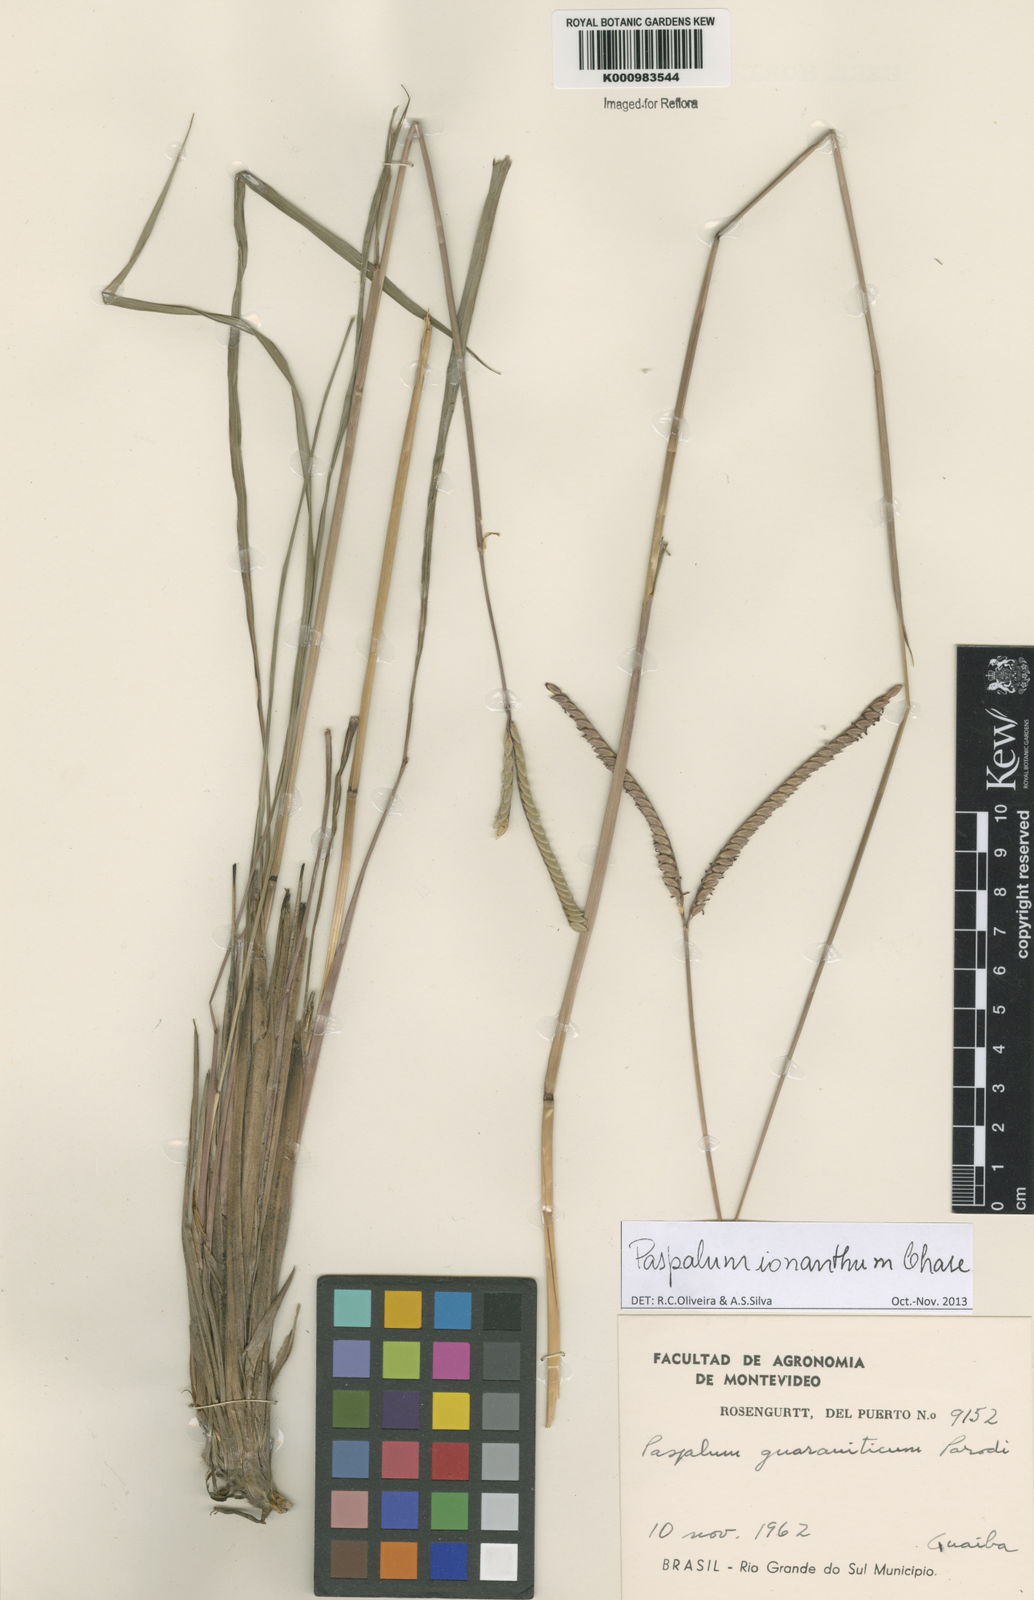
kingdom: Plantae
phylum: Tracheophyta
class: Liliopsida
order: Poales
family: Poaceae
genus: Paspalum
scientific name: Paspalum ionanthum
